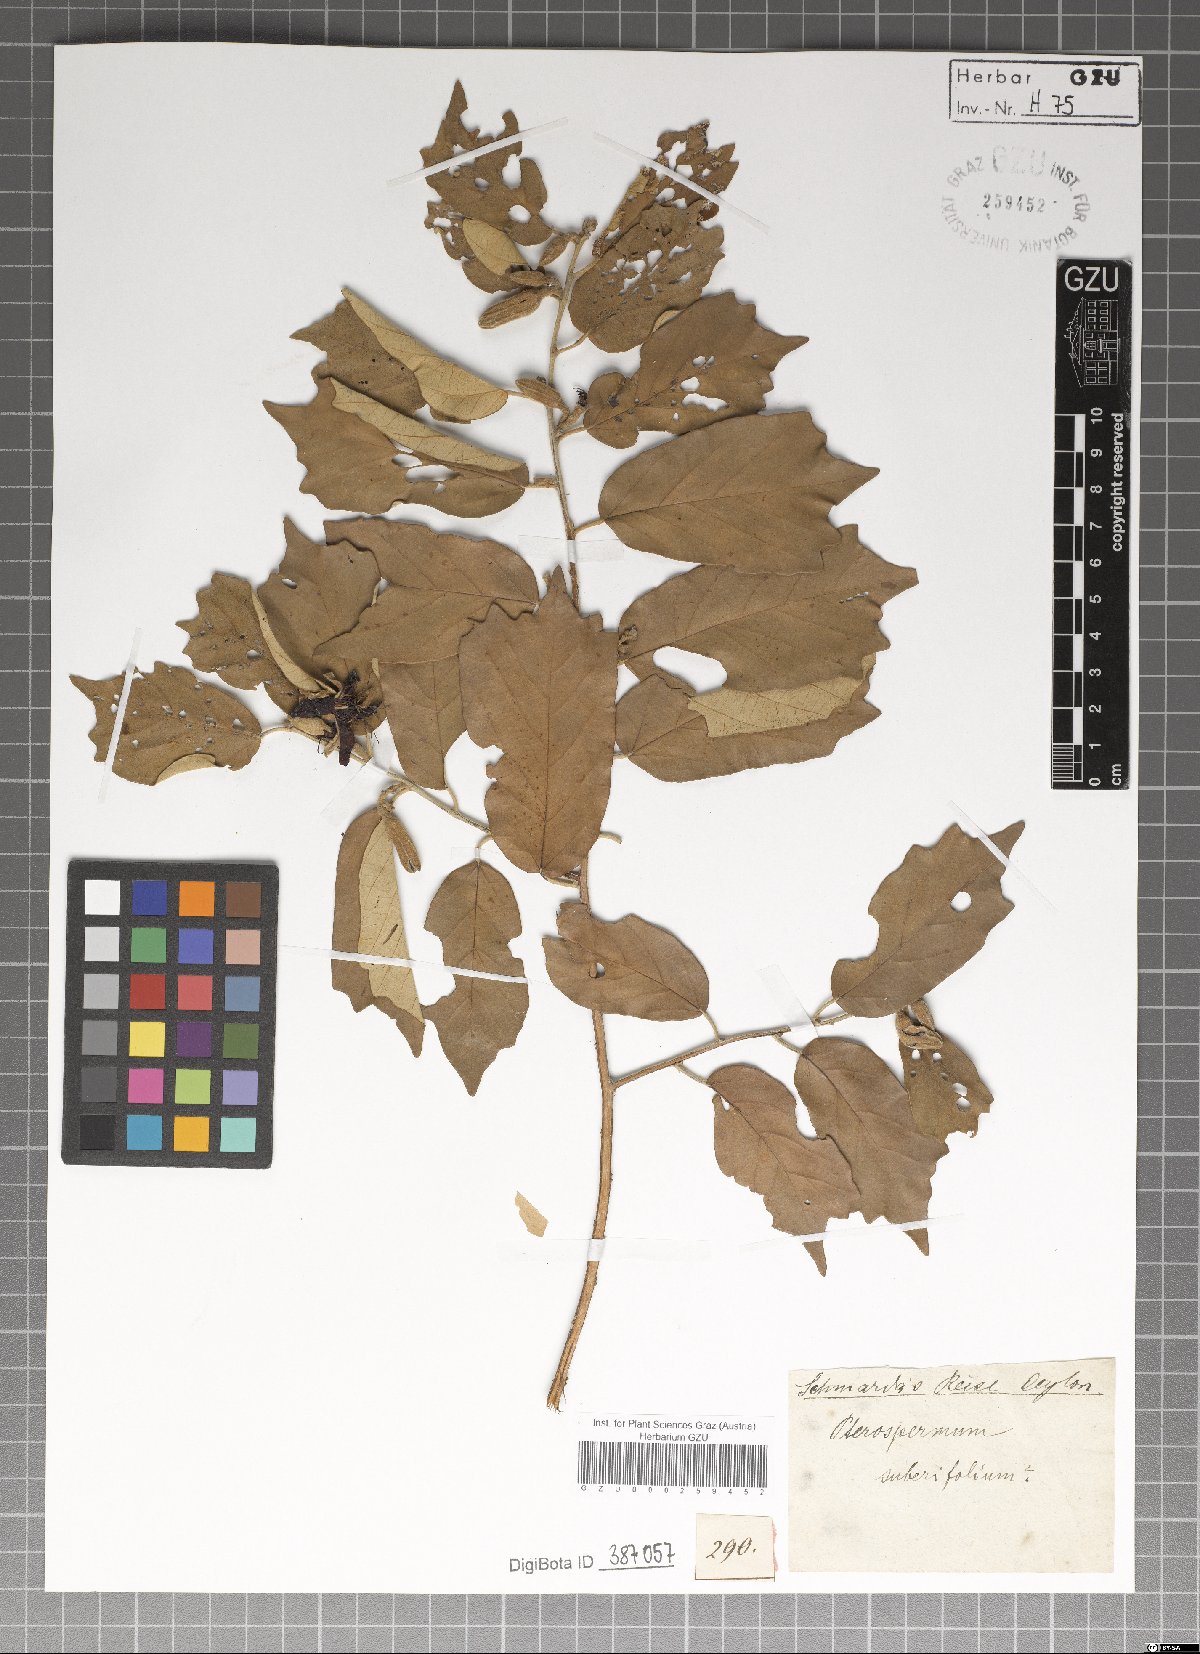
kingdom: Plantae
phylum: Tracheophyta
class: Magnoliopsida
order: Malvales
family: Malvaceae
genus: Pterospermum
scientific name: Pterospermum suberifolium
